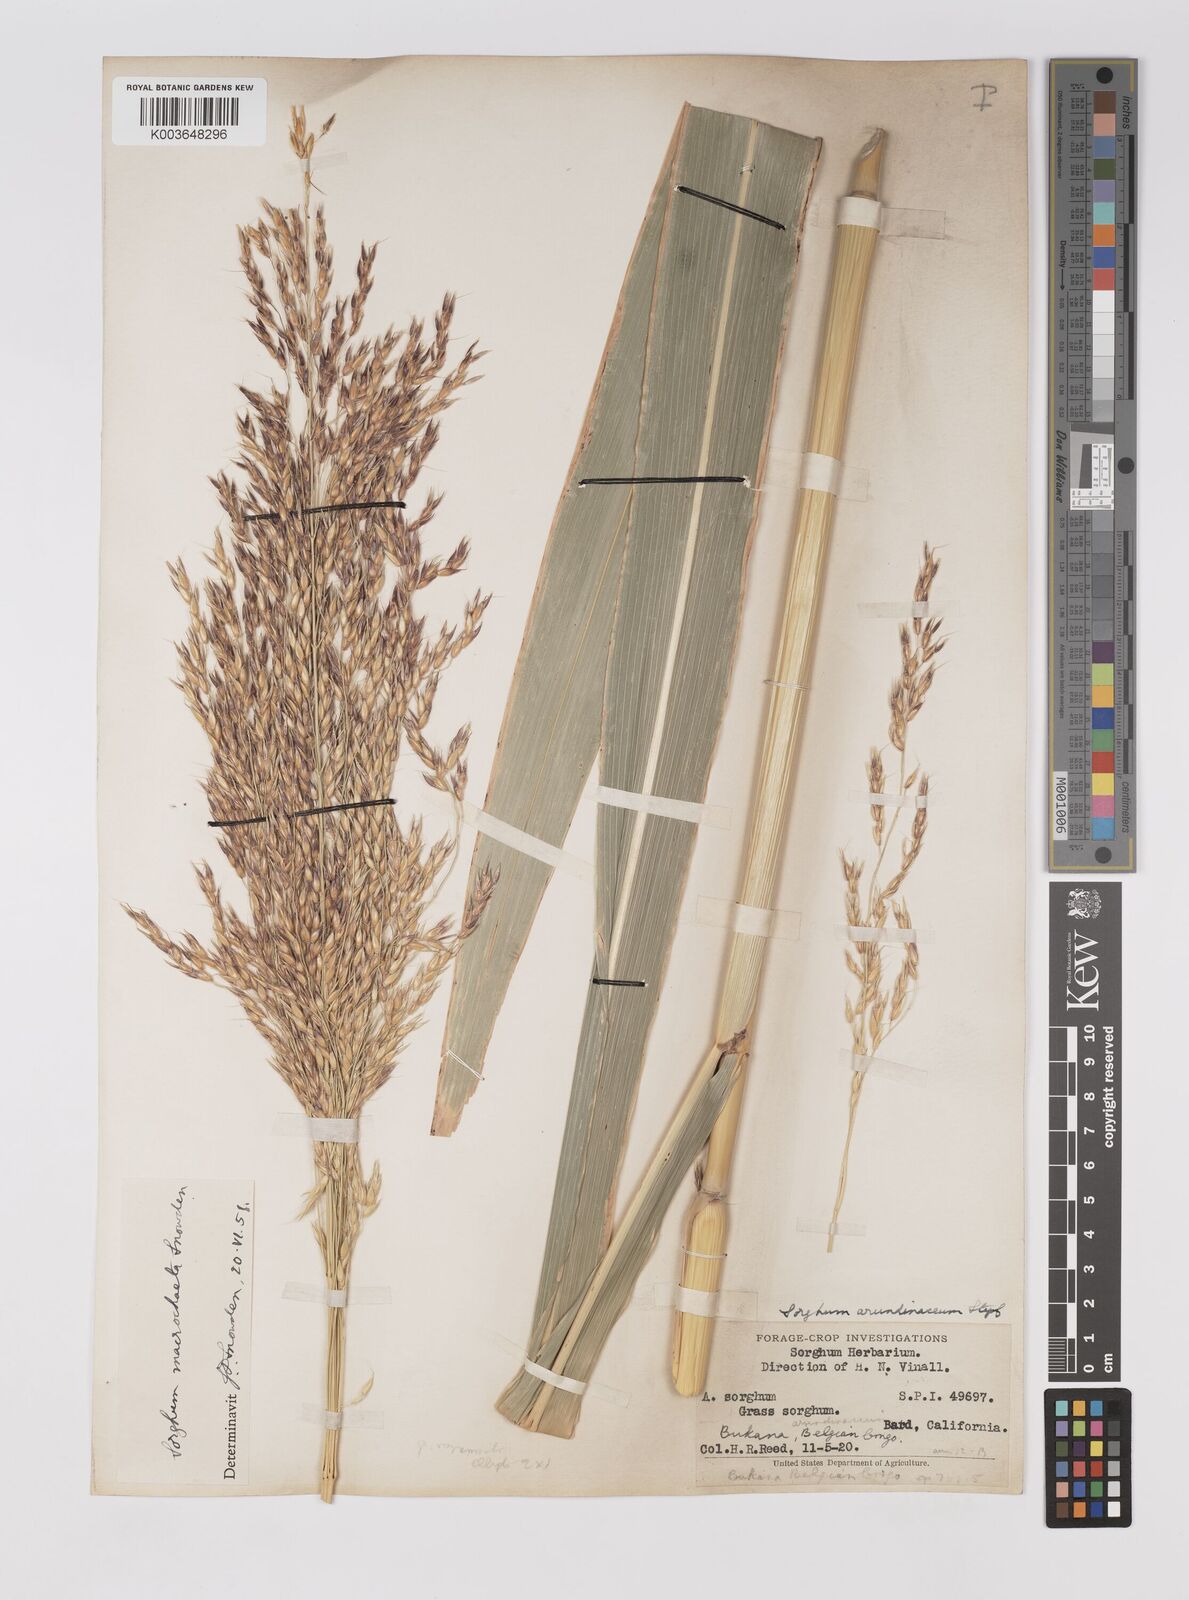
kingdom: Plantae
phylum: Tracheophyta
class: Liliopsida
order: Poales
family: Poaceae
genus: Sorghum
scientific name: Sorghum arundinaceum
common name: Sorghum
